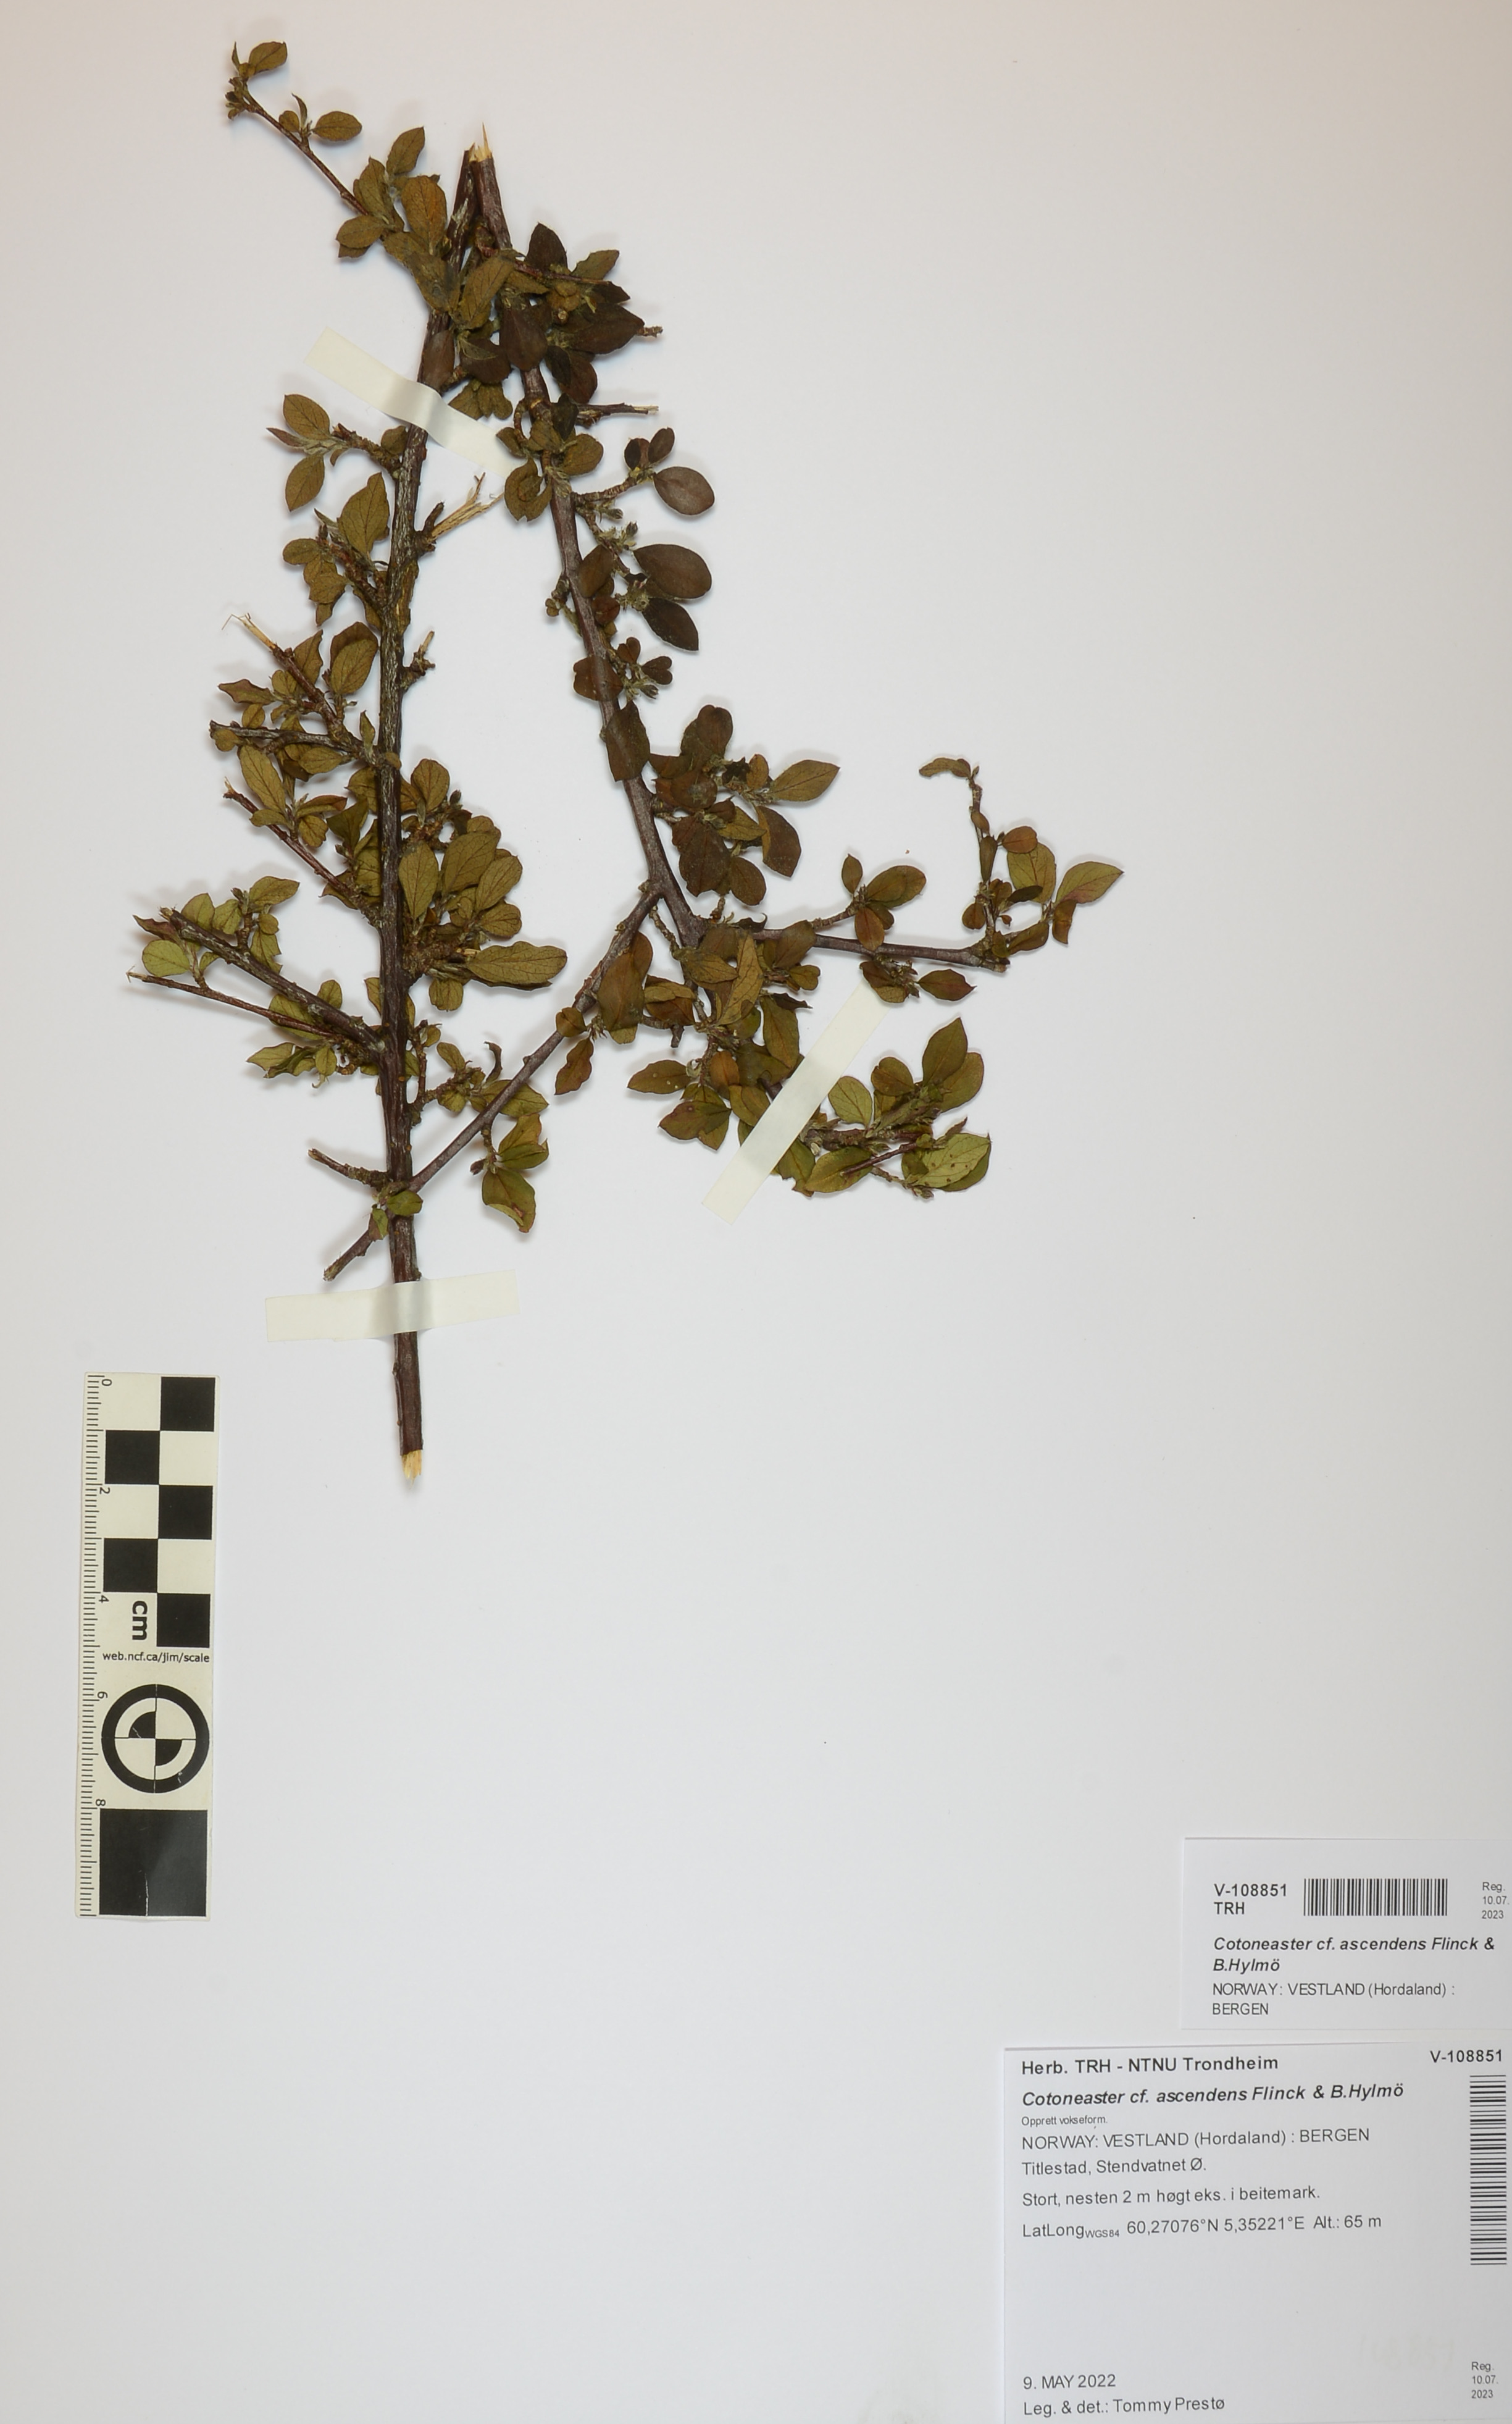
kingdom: Plantae
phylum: Tracheophyta
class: Magnoliopsida
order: Rosales
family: Rosaceae
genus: Cotoneaster
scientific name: Cotoneaster ascendens
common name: Ascending cotoneaster
